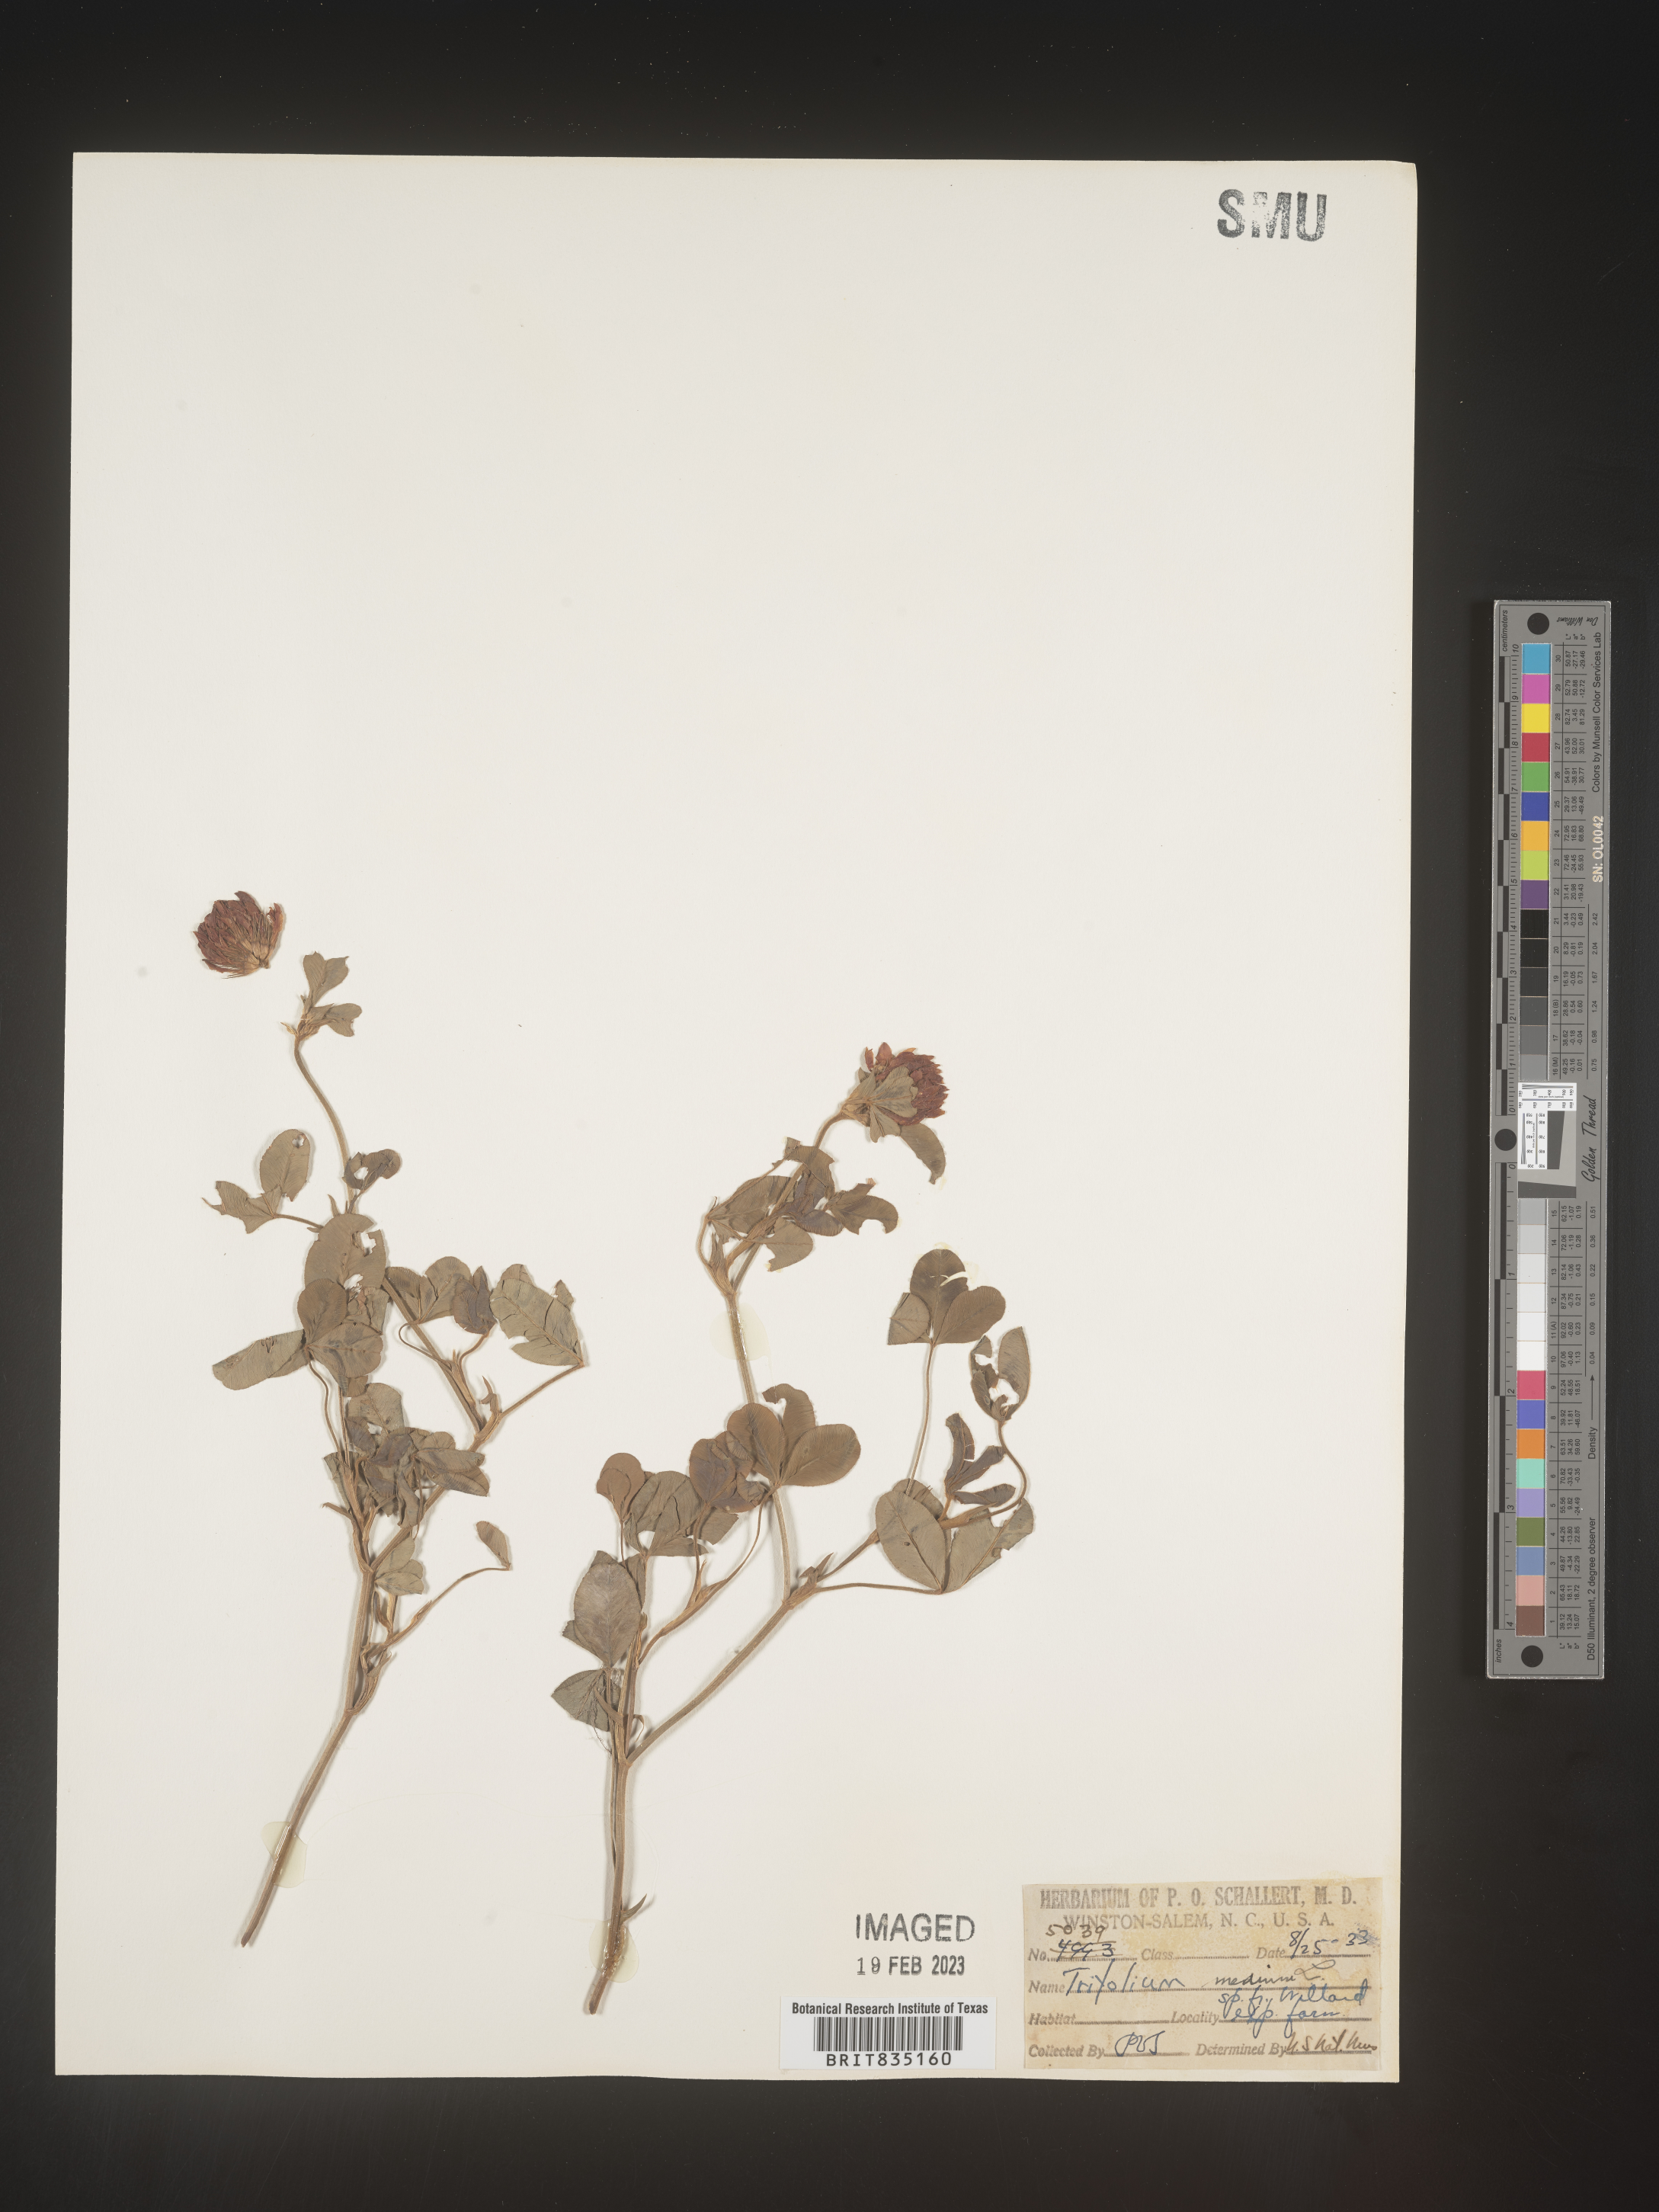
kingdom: Plantae
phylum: Tracheophyta
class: Magnoliopsida
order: Fabales
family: Fabaceae
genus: Trigonella
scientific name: Trigonella
